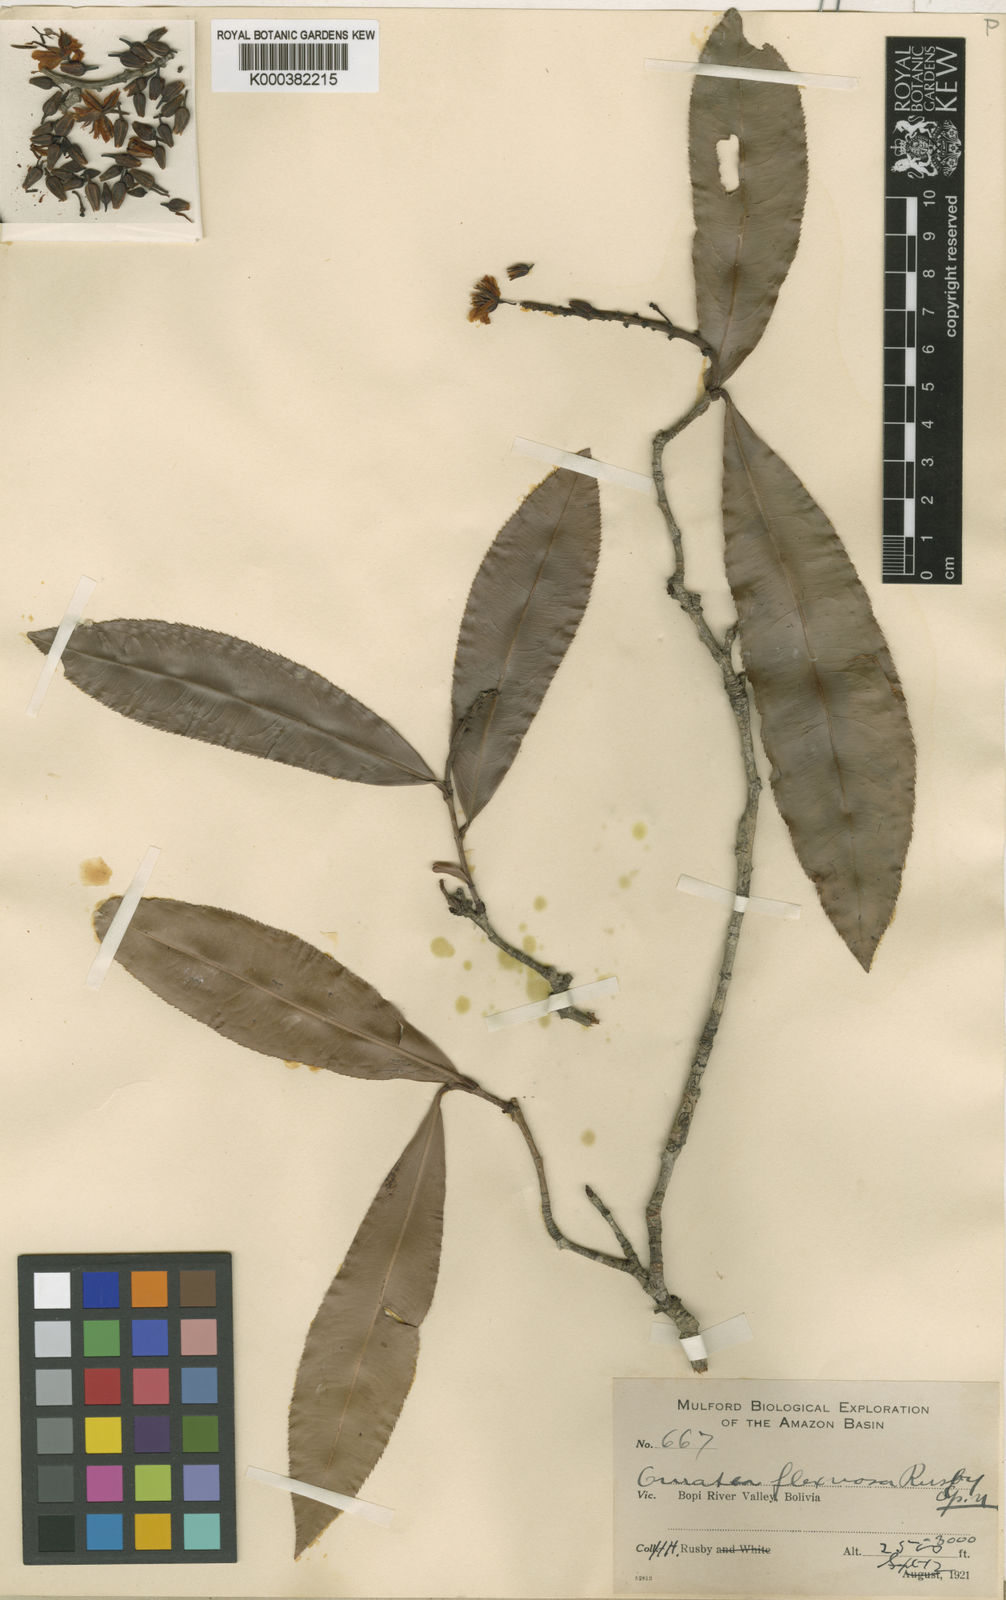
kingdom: Plantae
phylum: Tracheophyta
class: Magnoliopsida
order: Malpighiales
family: Ochnaceae
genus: Ouratea
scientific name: Ouratea flexuosa
